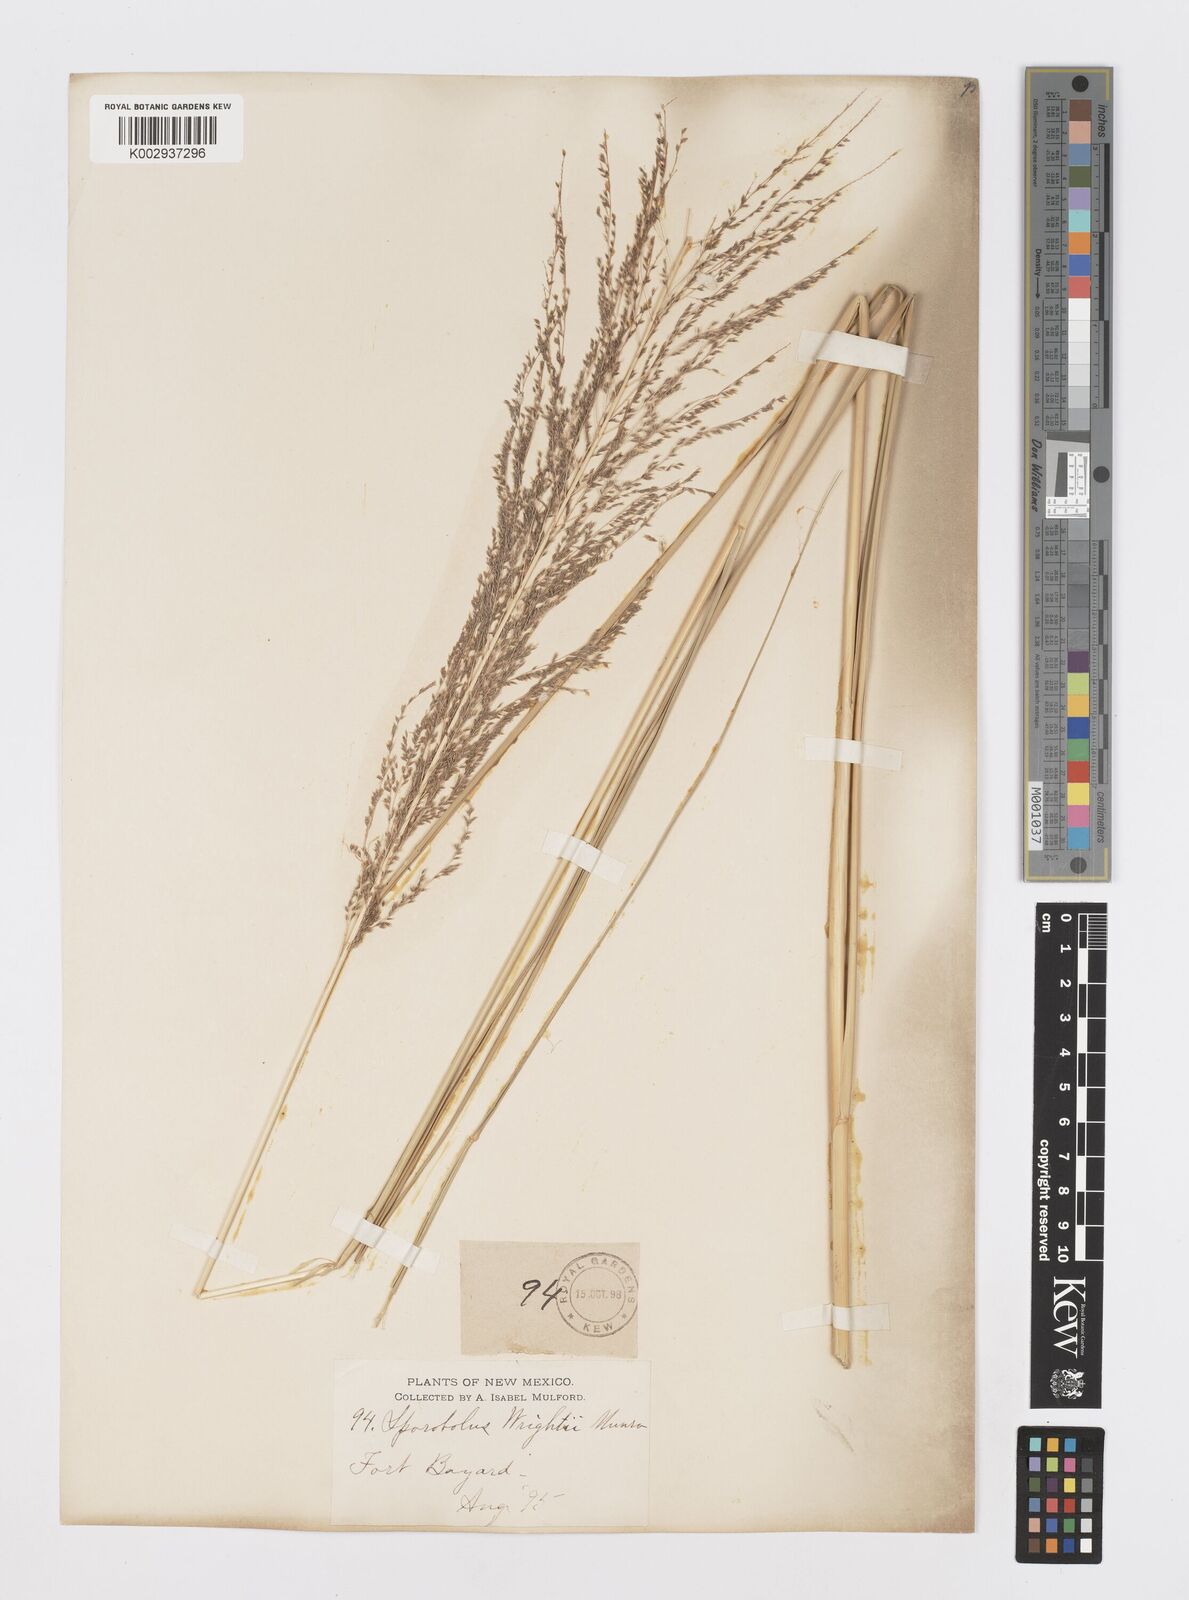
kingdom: Plantae
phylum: Tracheophyta
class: Liliopsida
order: Poales
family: Poaceae
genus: Sporobolus
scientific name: Sporobolus wrightii
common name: Big alkali sacaton
